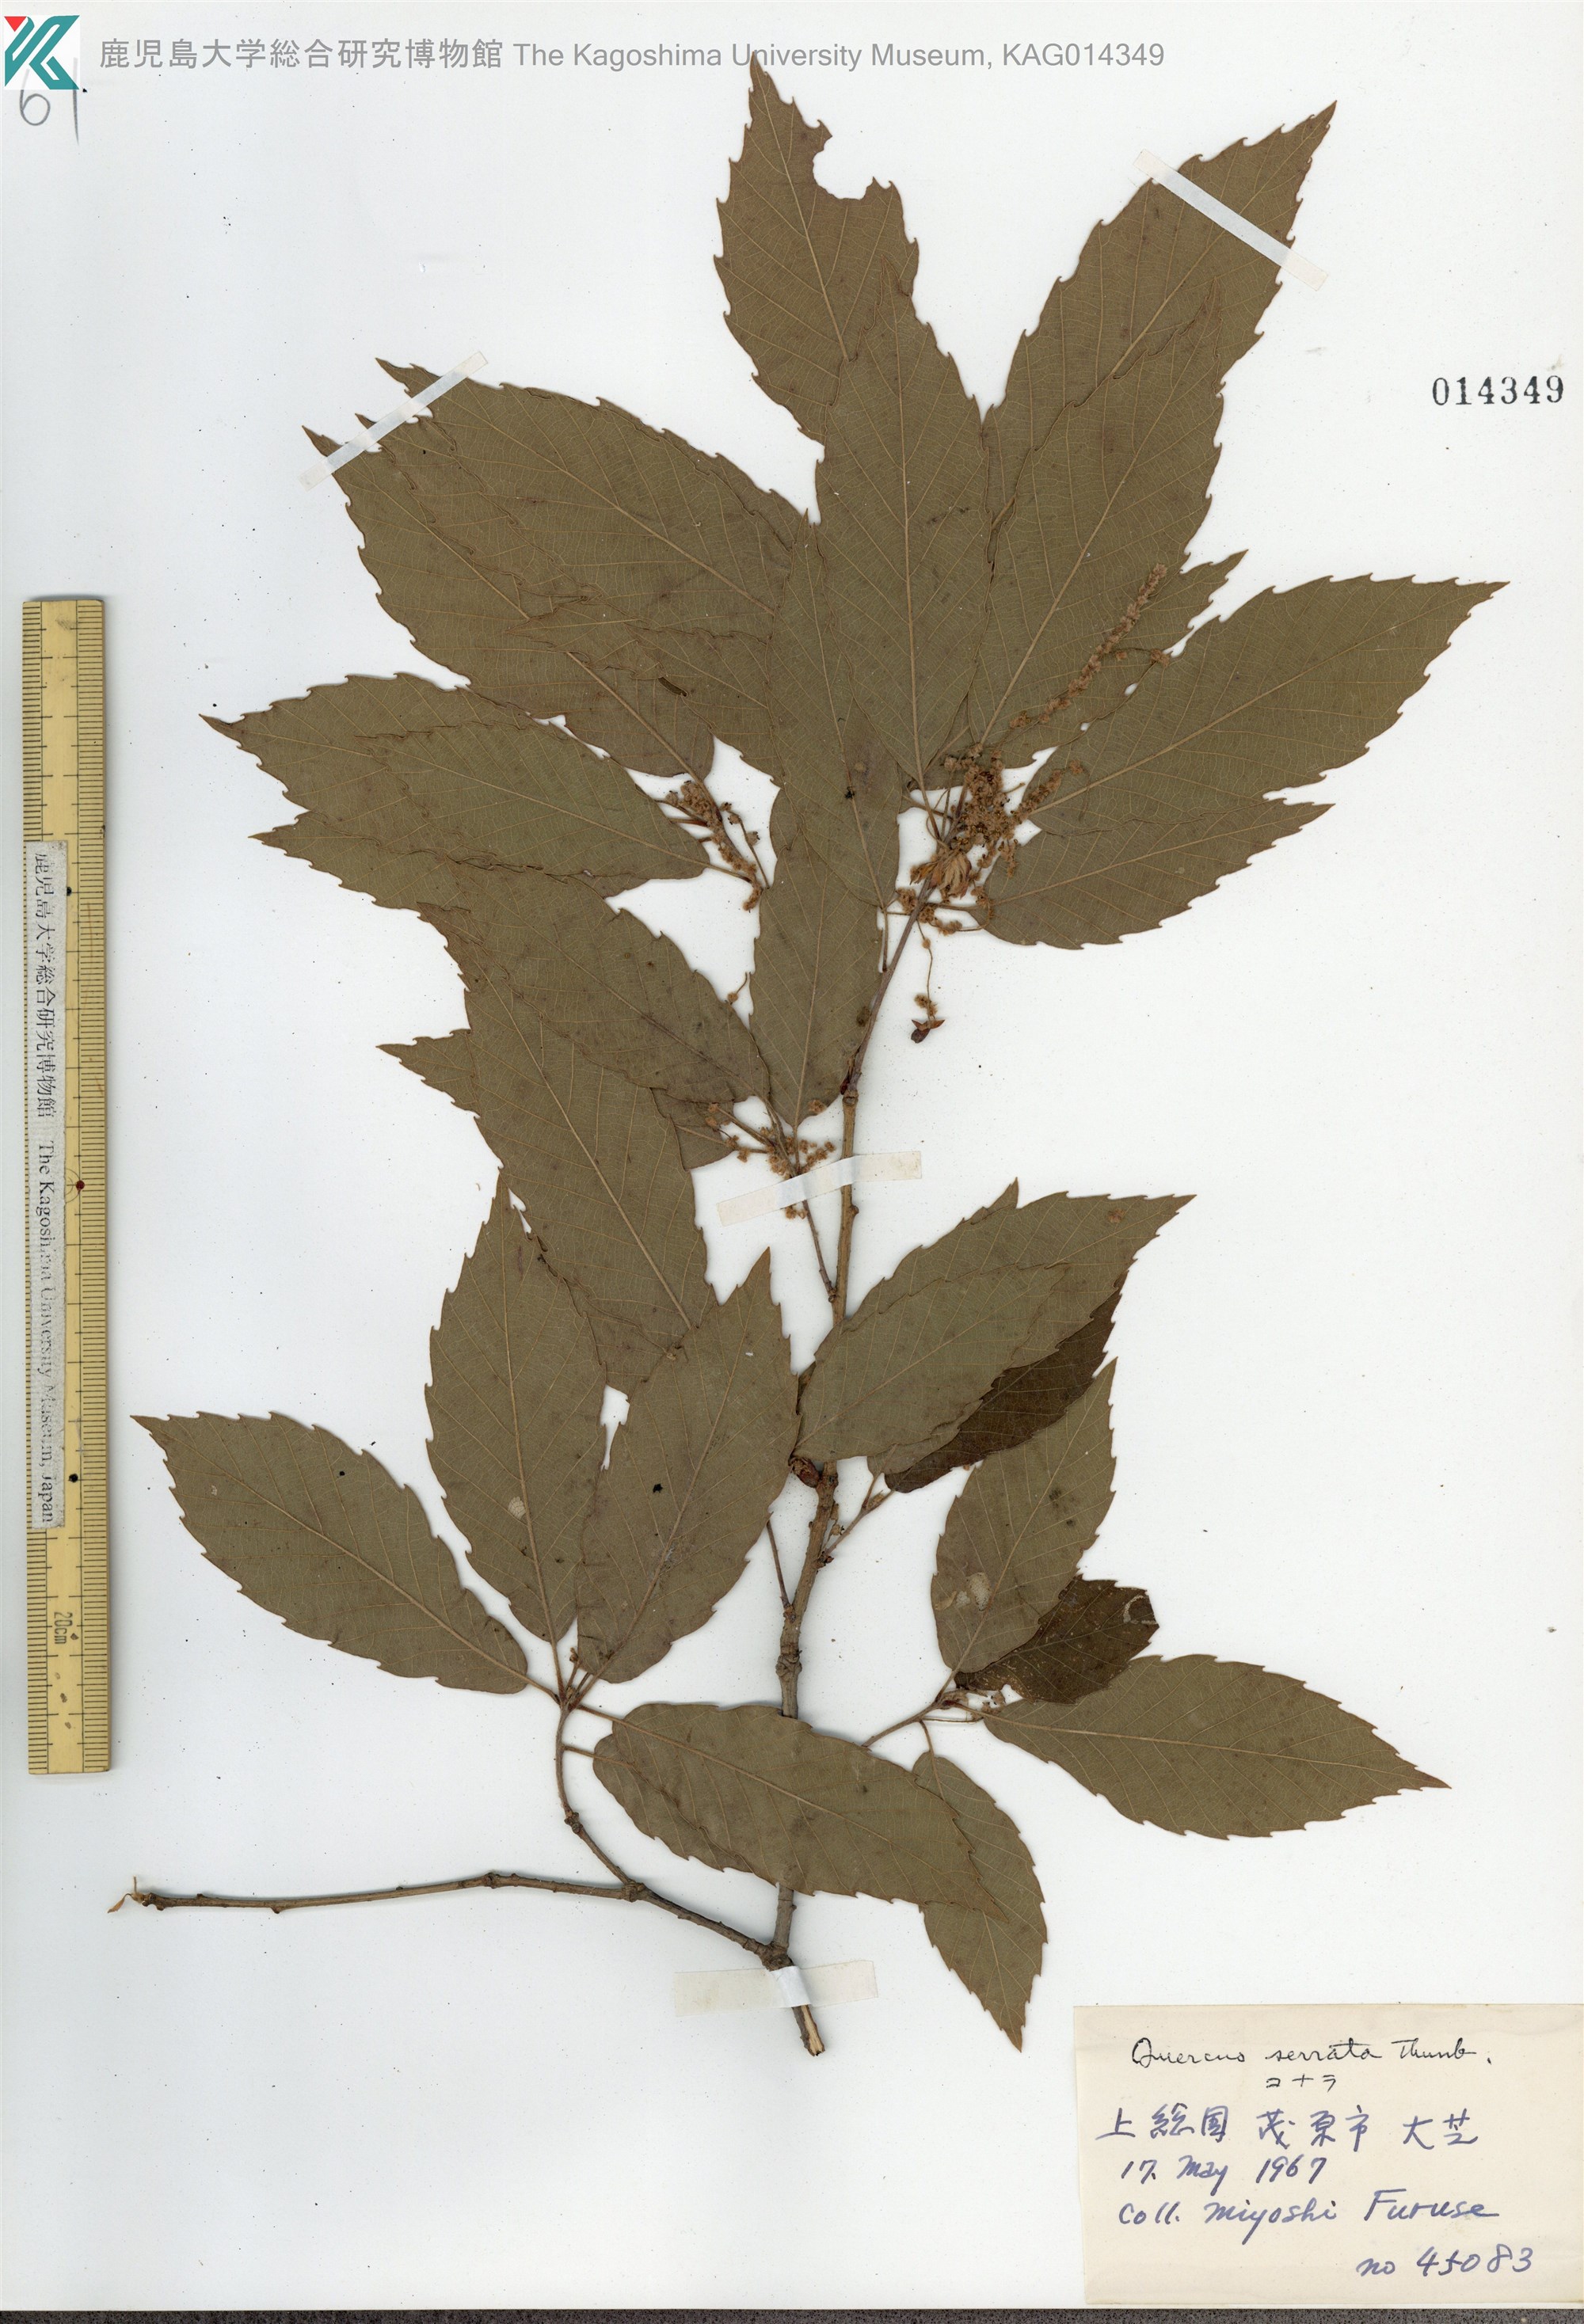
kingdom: Plantae
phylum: Tracheophyta
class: Magnoliopsida
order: Fagales
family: Fagaceae
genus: Quercus
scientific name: Quercus serrata
